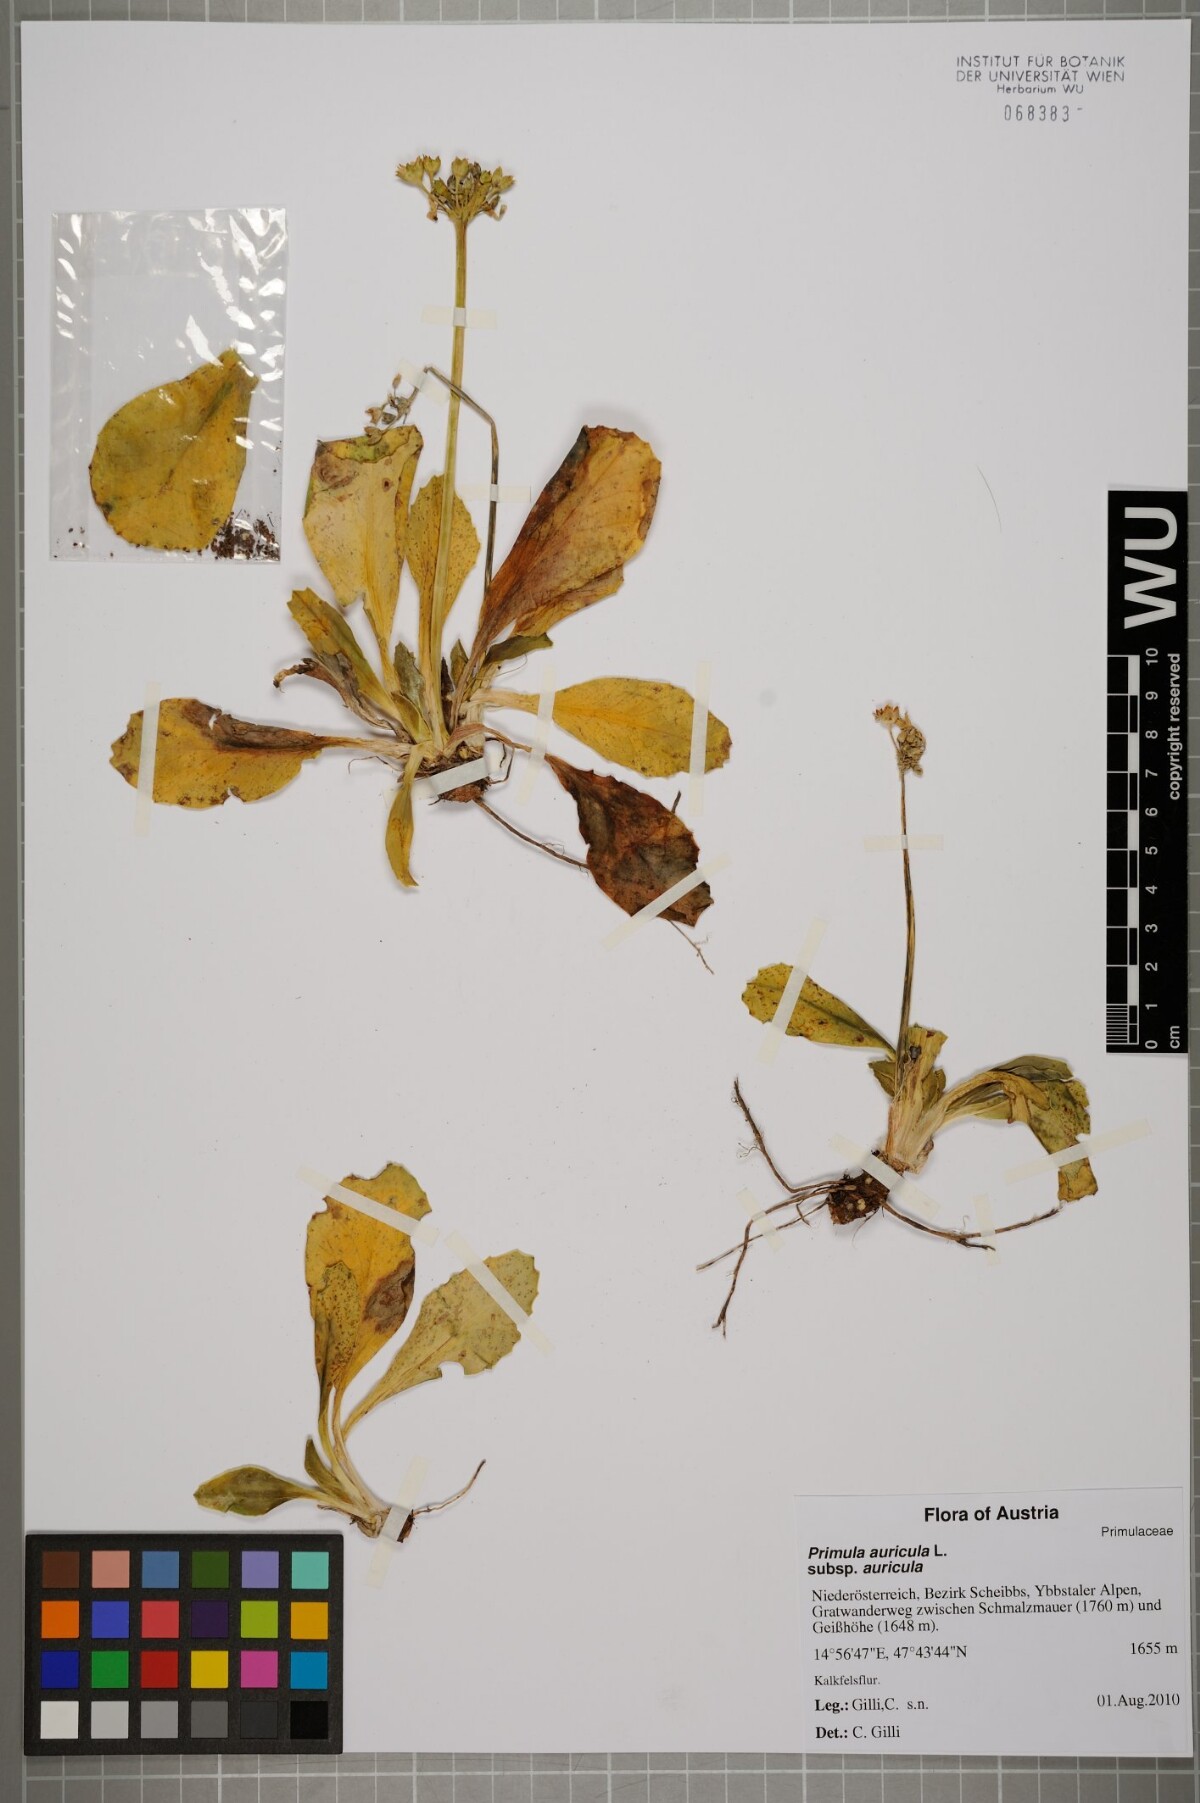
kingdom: Plantae
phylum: Tracheophyta
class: Magnoliopsida
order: Ericales
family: Primulaceae
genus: Primula
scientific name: Primula auricula
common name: Auricula
